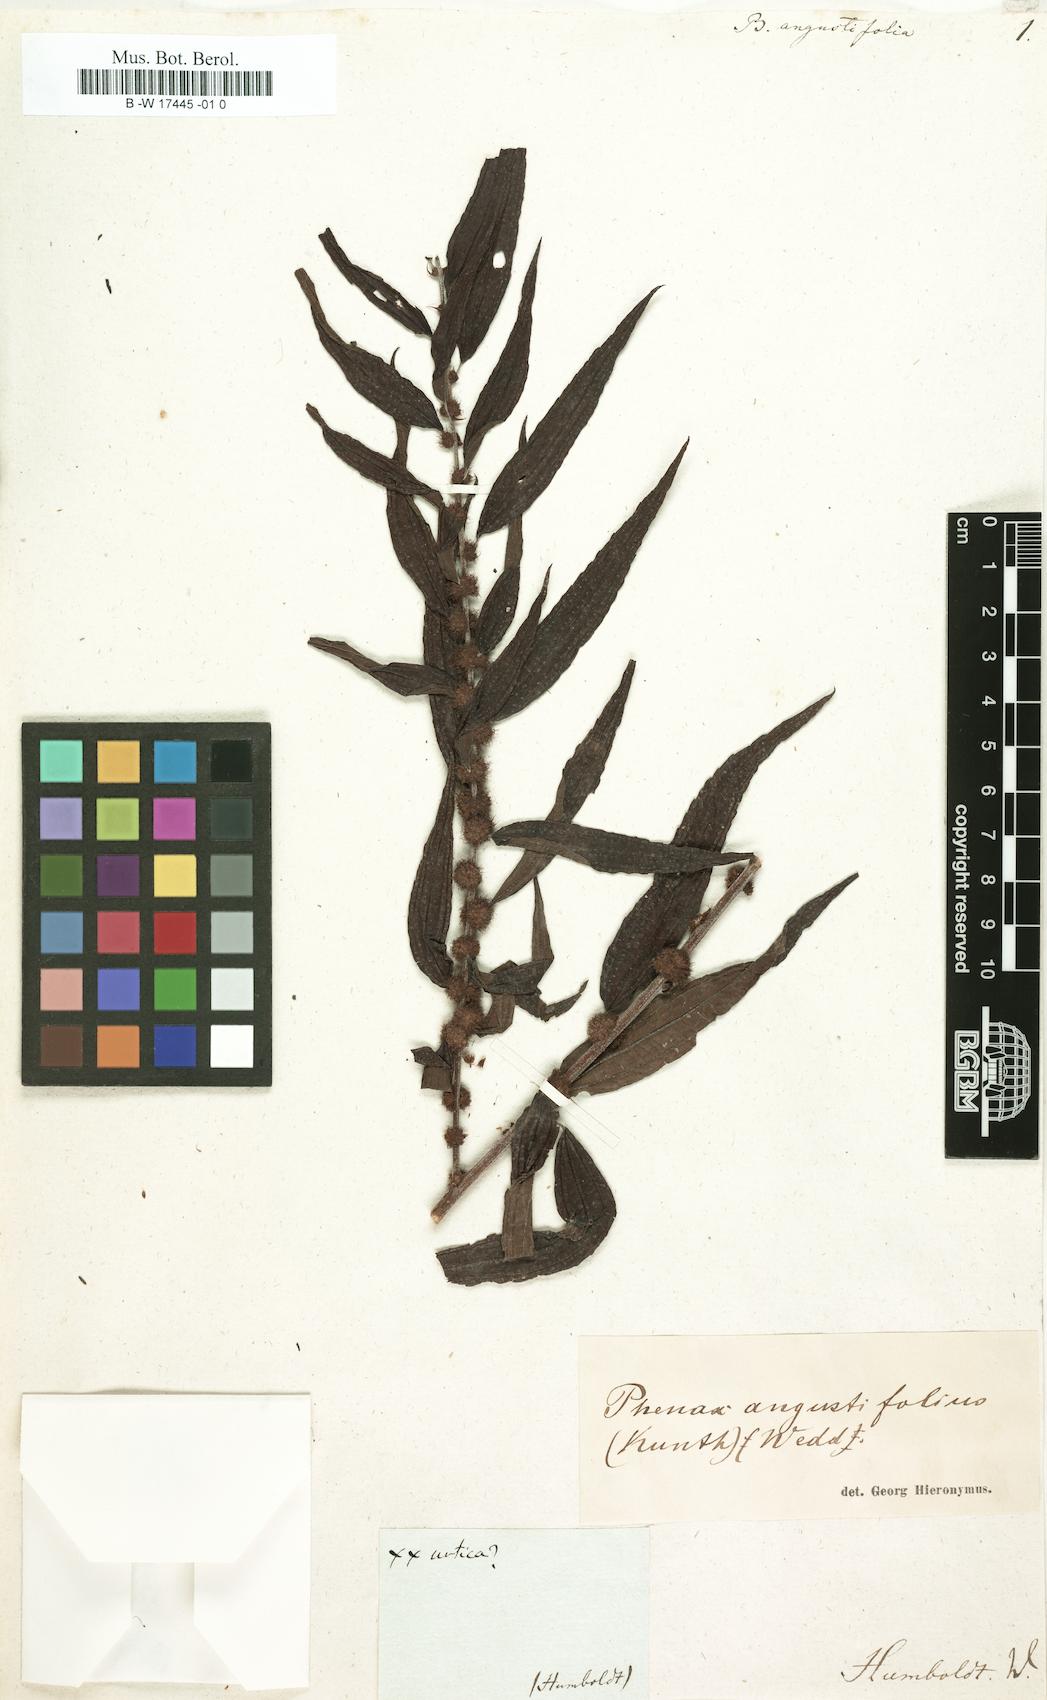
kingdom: Plantae
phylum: Tracheophyta
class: Magnoliopsida
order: Rosales
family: Urticaceae
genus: Phenax
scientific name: Phenax angustifolius
